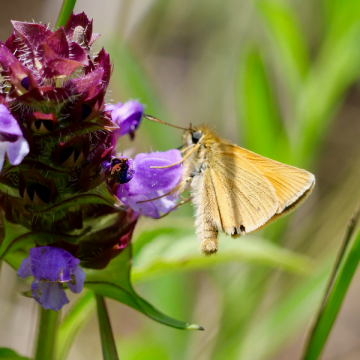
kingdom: Animalia
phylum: Arthropoda
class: Insecta
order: Lepidoptera
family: Hesperiidae
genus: Thymelicus
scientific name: Thymelicus lineola
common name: European Skipper
